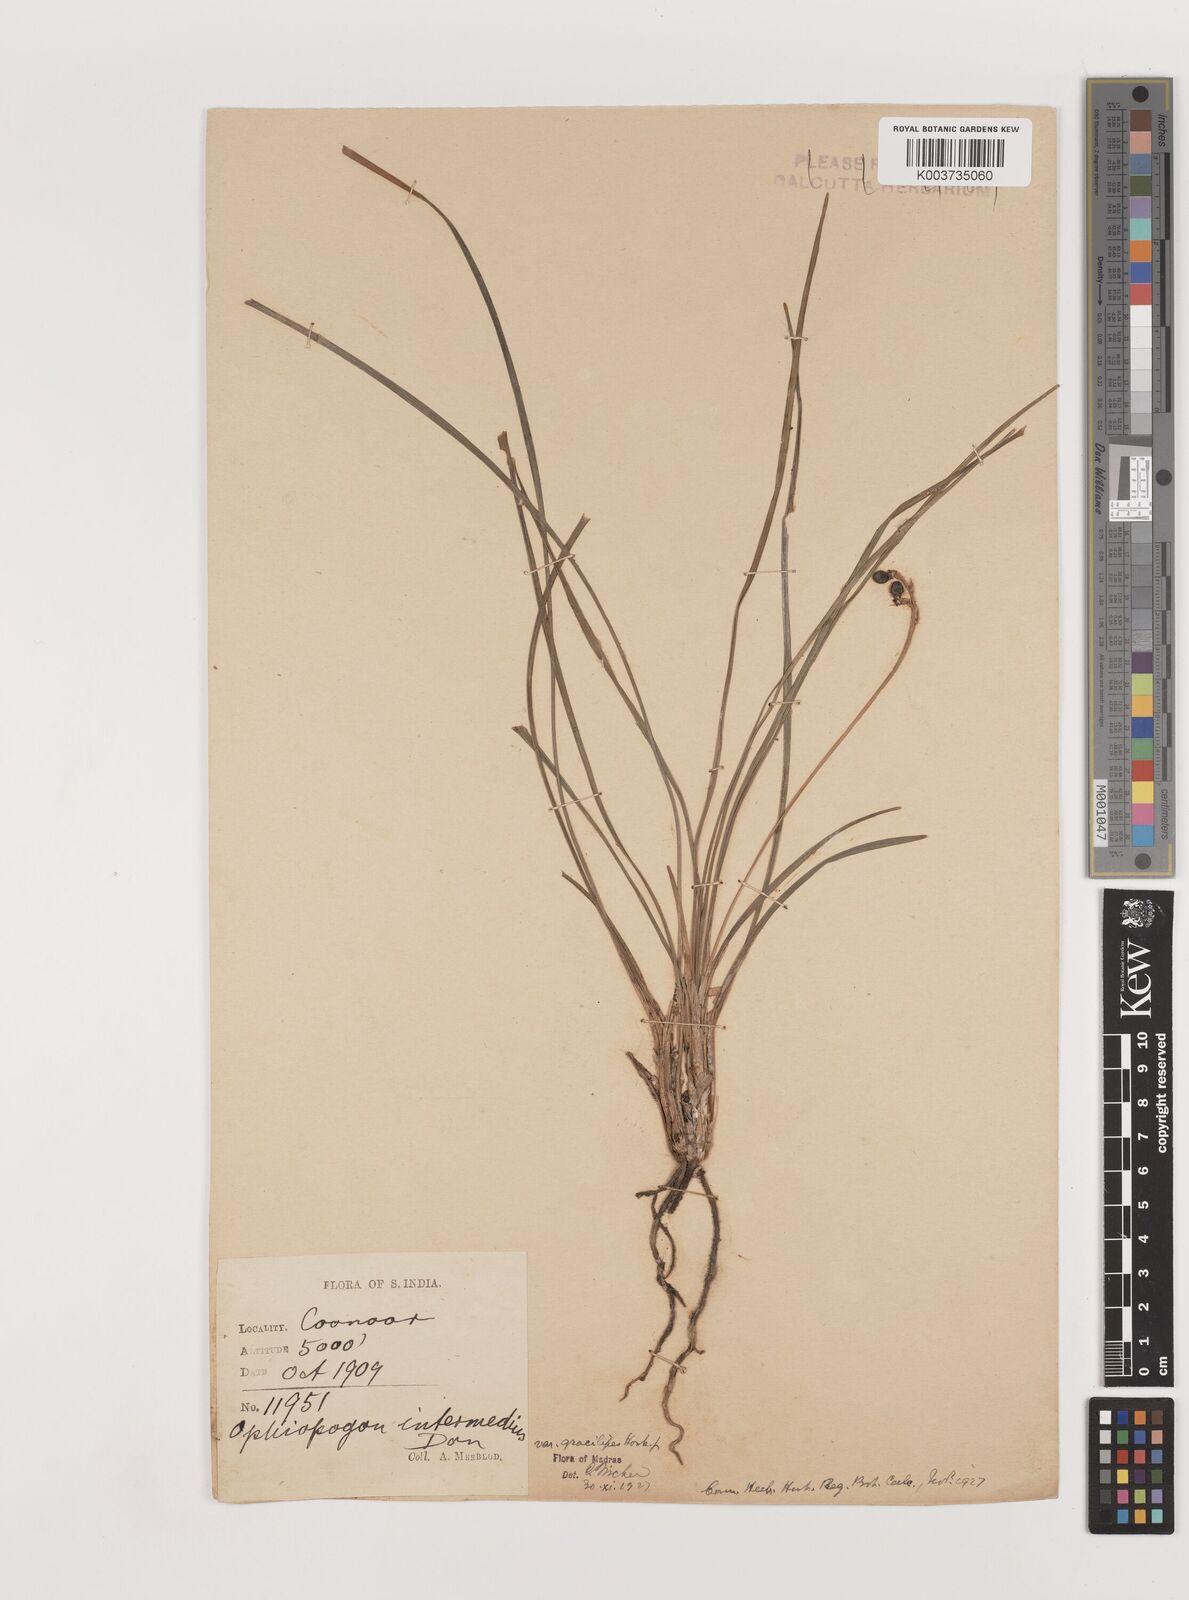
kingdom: Plantae
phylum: Tracheophyta
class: Liliopsida
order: Asparagales
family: Asparagaceae
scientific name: Asparagaceae
